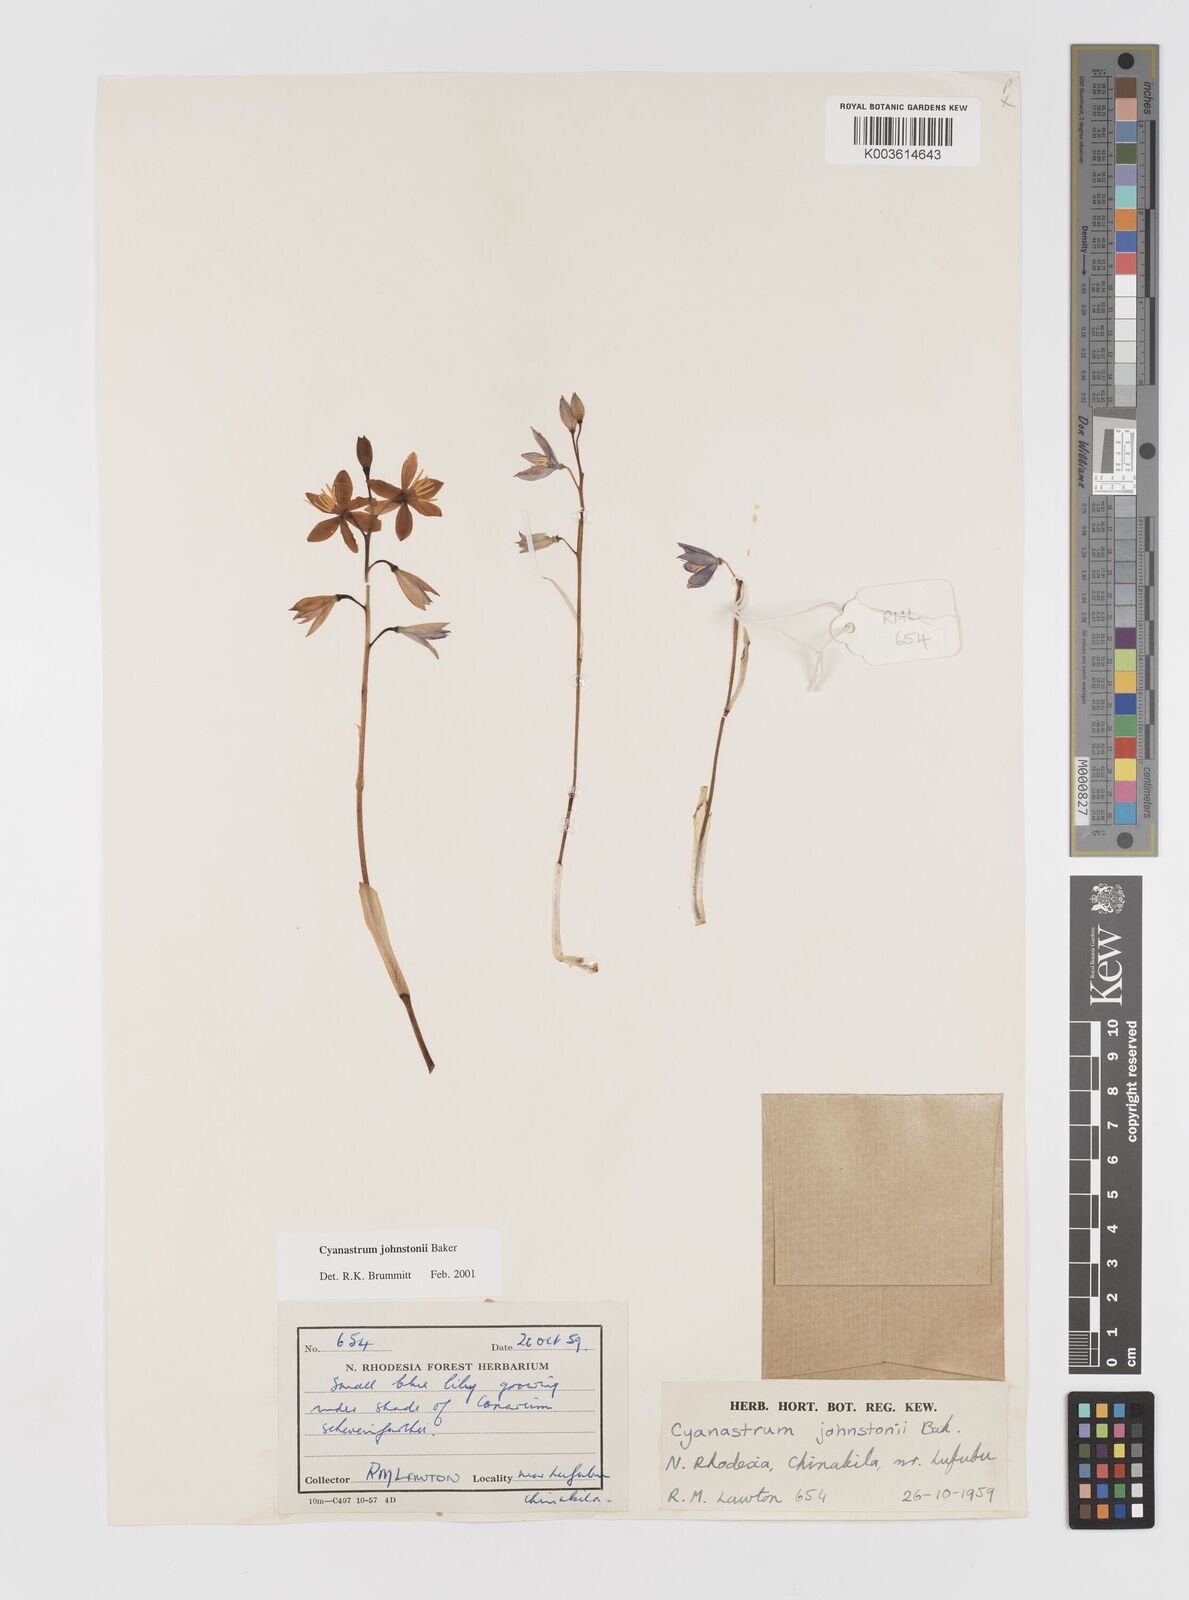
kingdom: Plantae
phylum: Tracheophyta
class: Liliopsida
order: Asparagales
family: Tecophilaeaceae
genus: Cyanastrum
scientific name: Cyanastrum johnstonii
